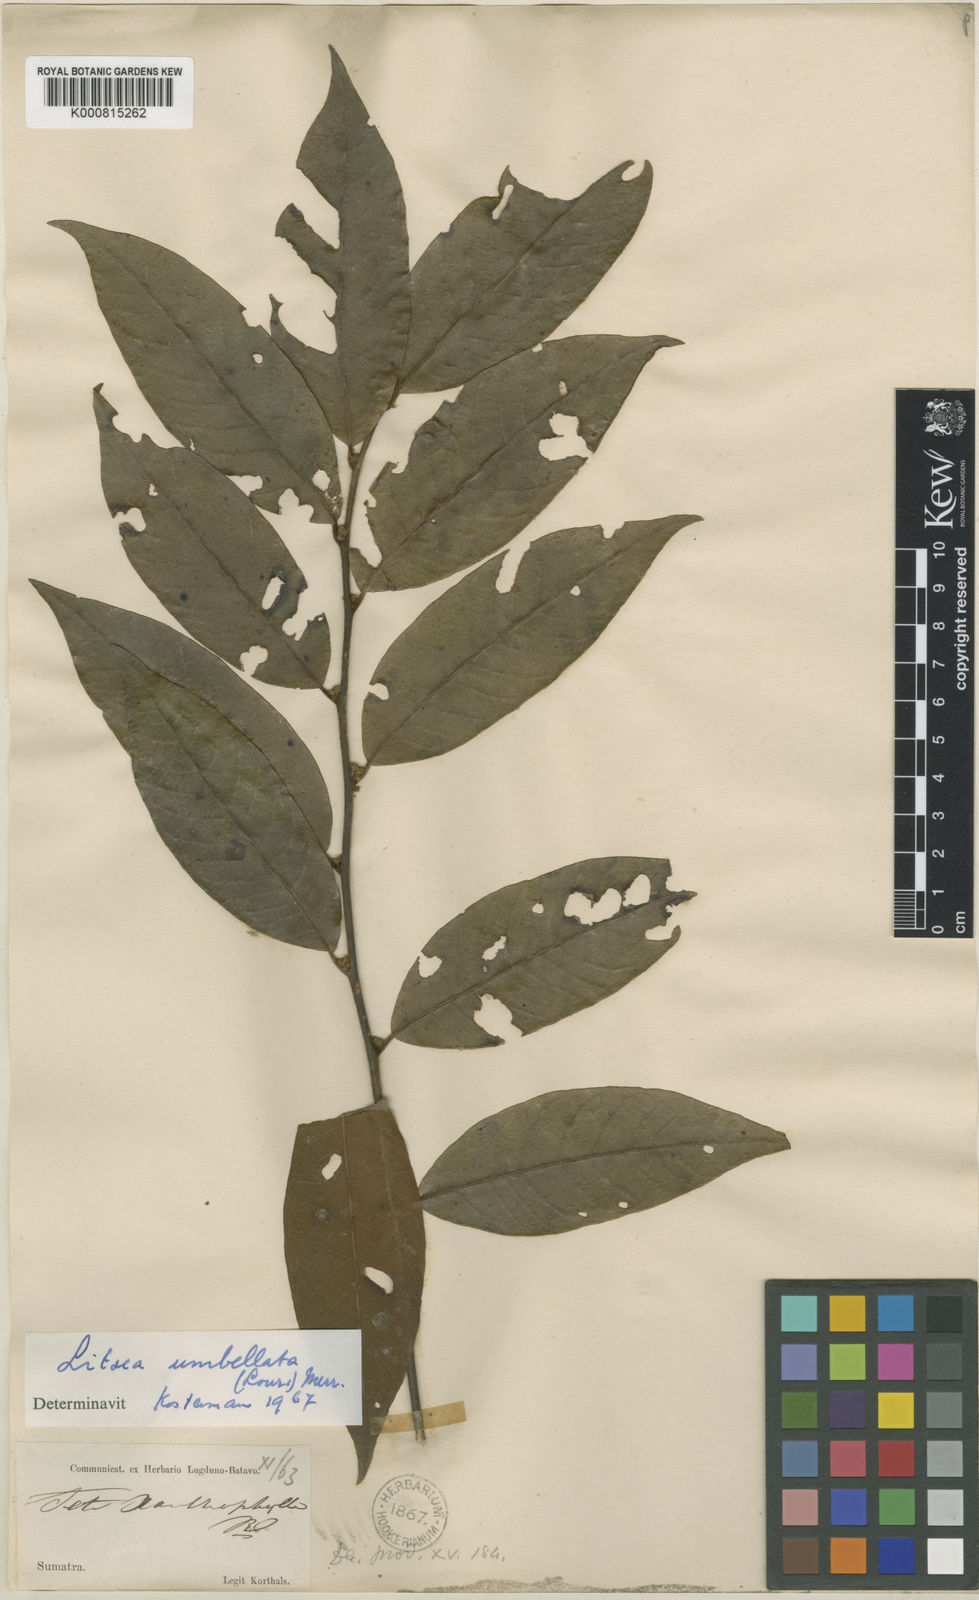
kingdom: Plantae
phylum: Tracheophyta
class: Magnoliopsida
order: Laurales
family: Lauraceae
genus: Litsea
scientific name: Litsea umbellata
